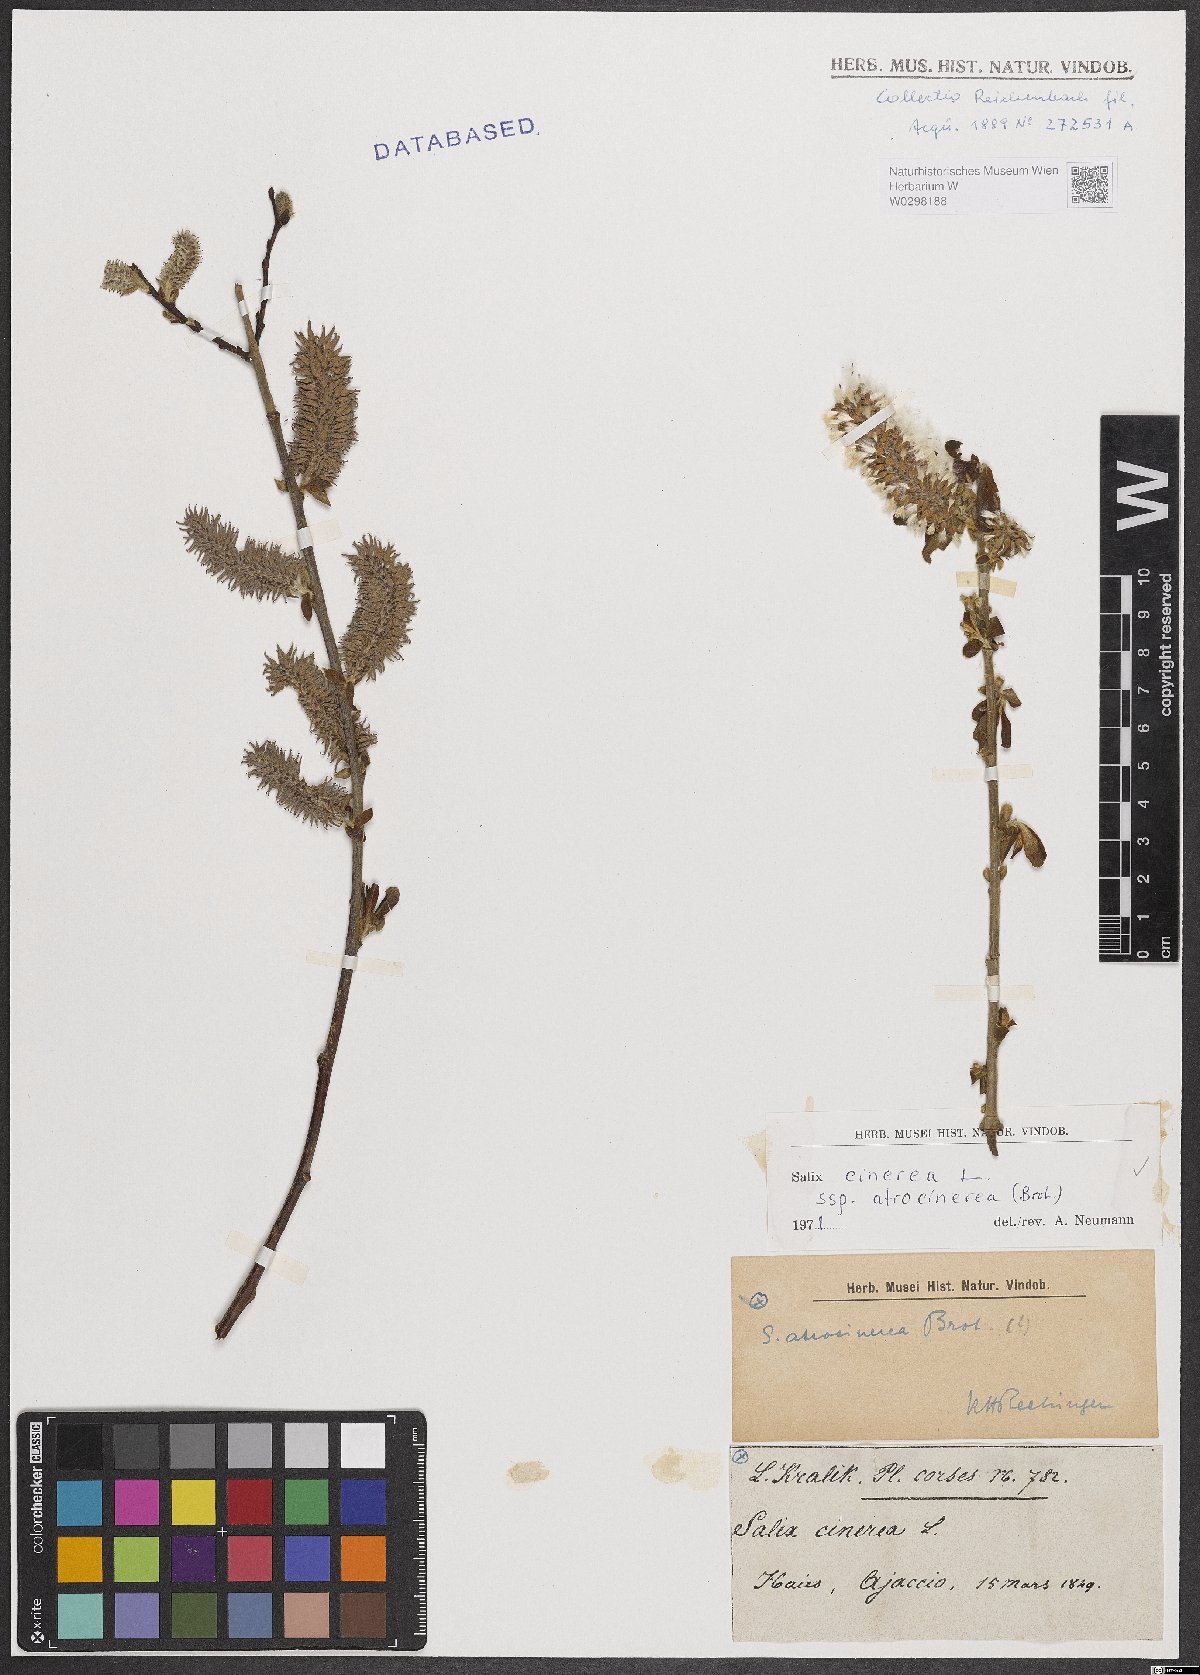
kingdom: Plantae
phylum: Tracheophyta
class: Magnoliopsida
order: Malpighiales
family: Salicaceae
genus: Salix
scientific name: Salix atrocinerea
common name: Rusty willow
